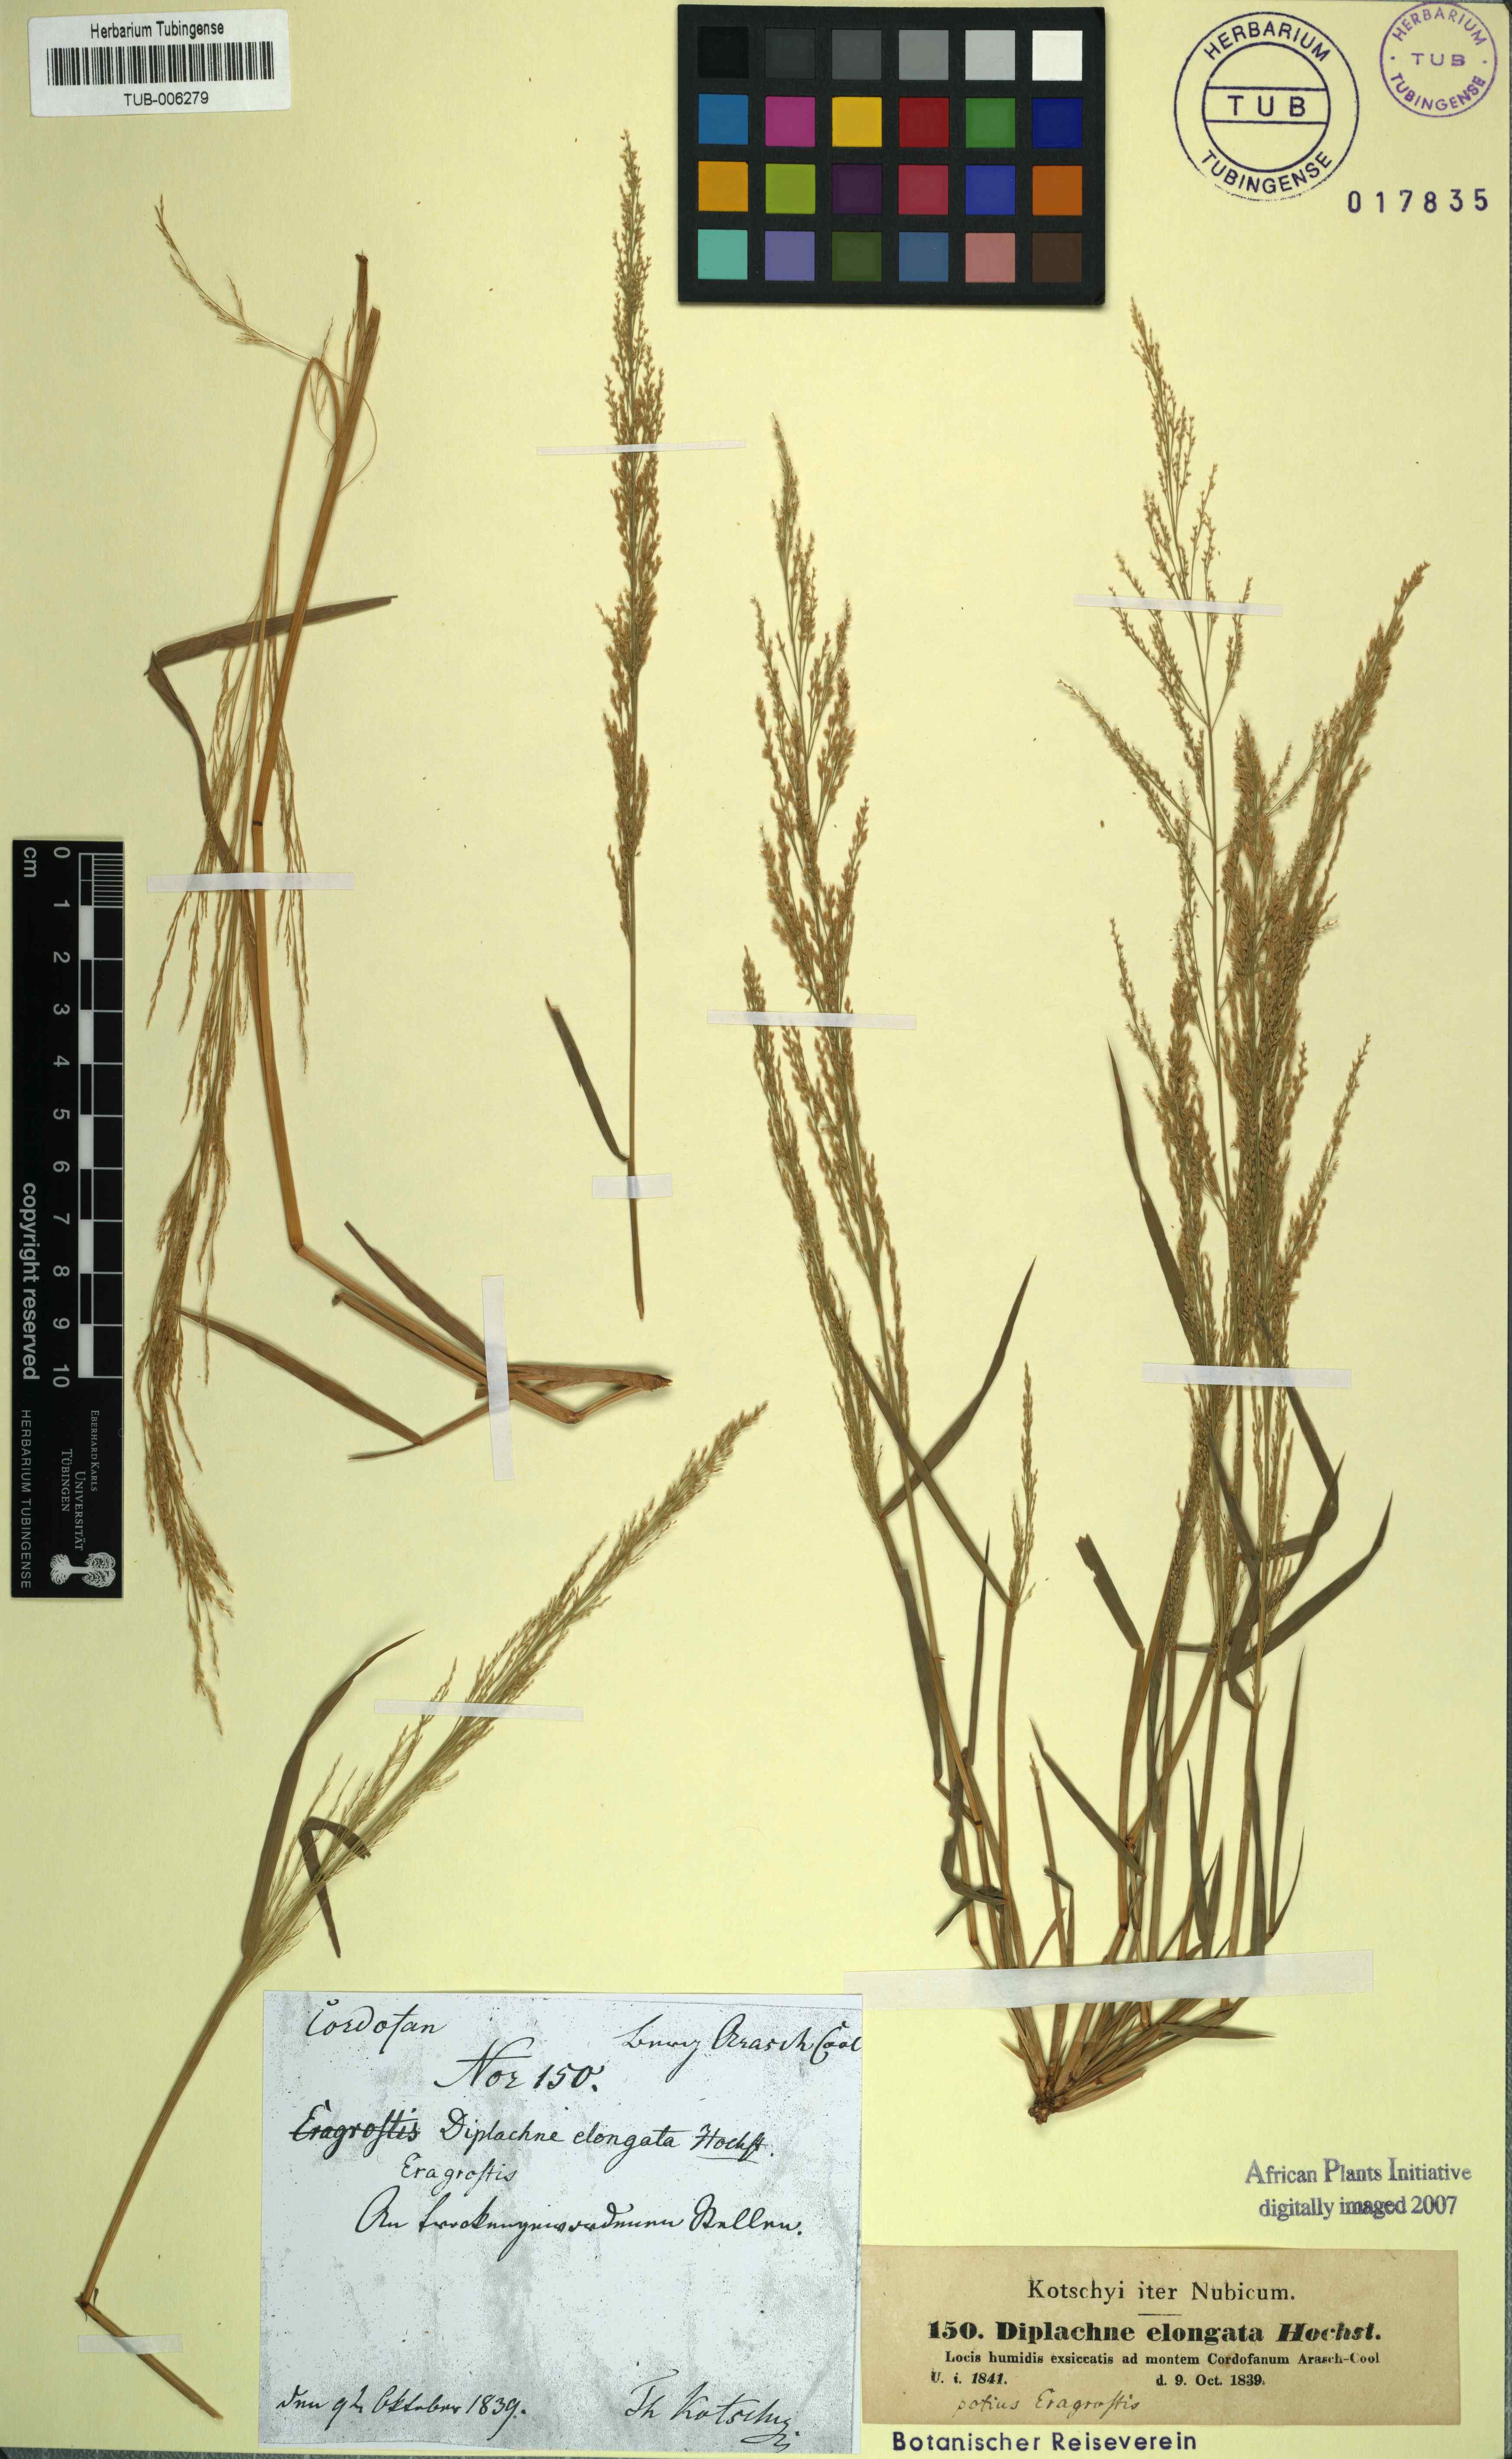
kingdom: Plantae
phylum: Tracheophyta
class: Liliopsida
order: Poales
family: Poaceae
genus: Eragrostis
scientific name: Eragrostis interrupta
